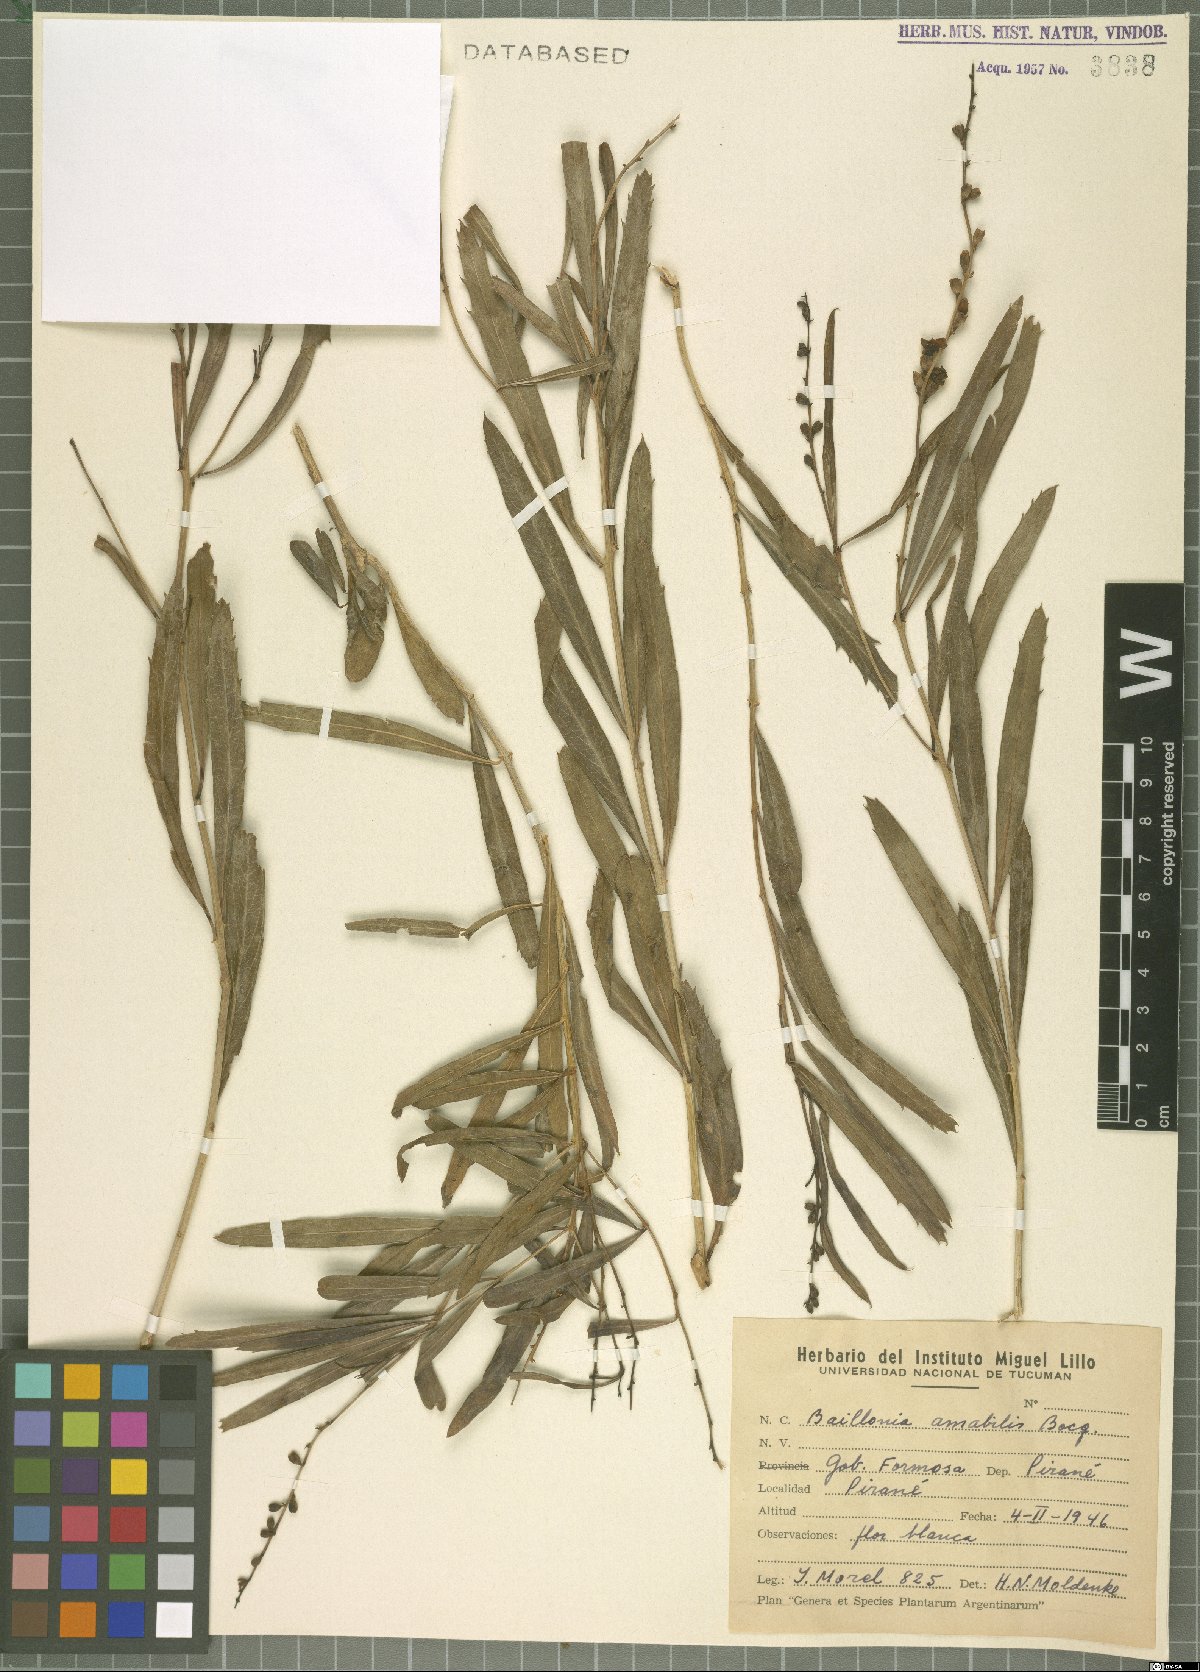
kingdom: Plantae
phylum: Tracheophyta
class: Magnoliopsida
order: Lamiales
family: Verbenaceae
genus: Citharexylum
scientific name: Citharexylum amabile
